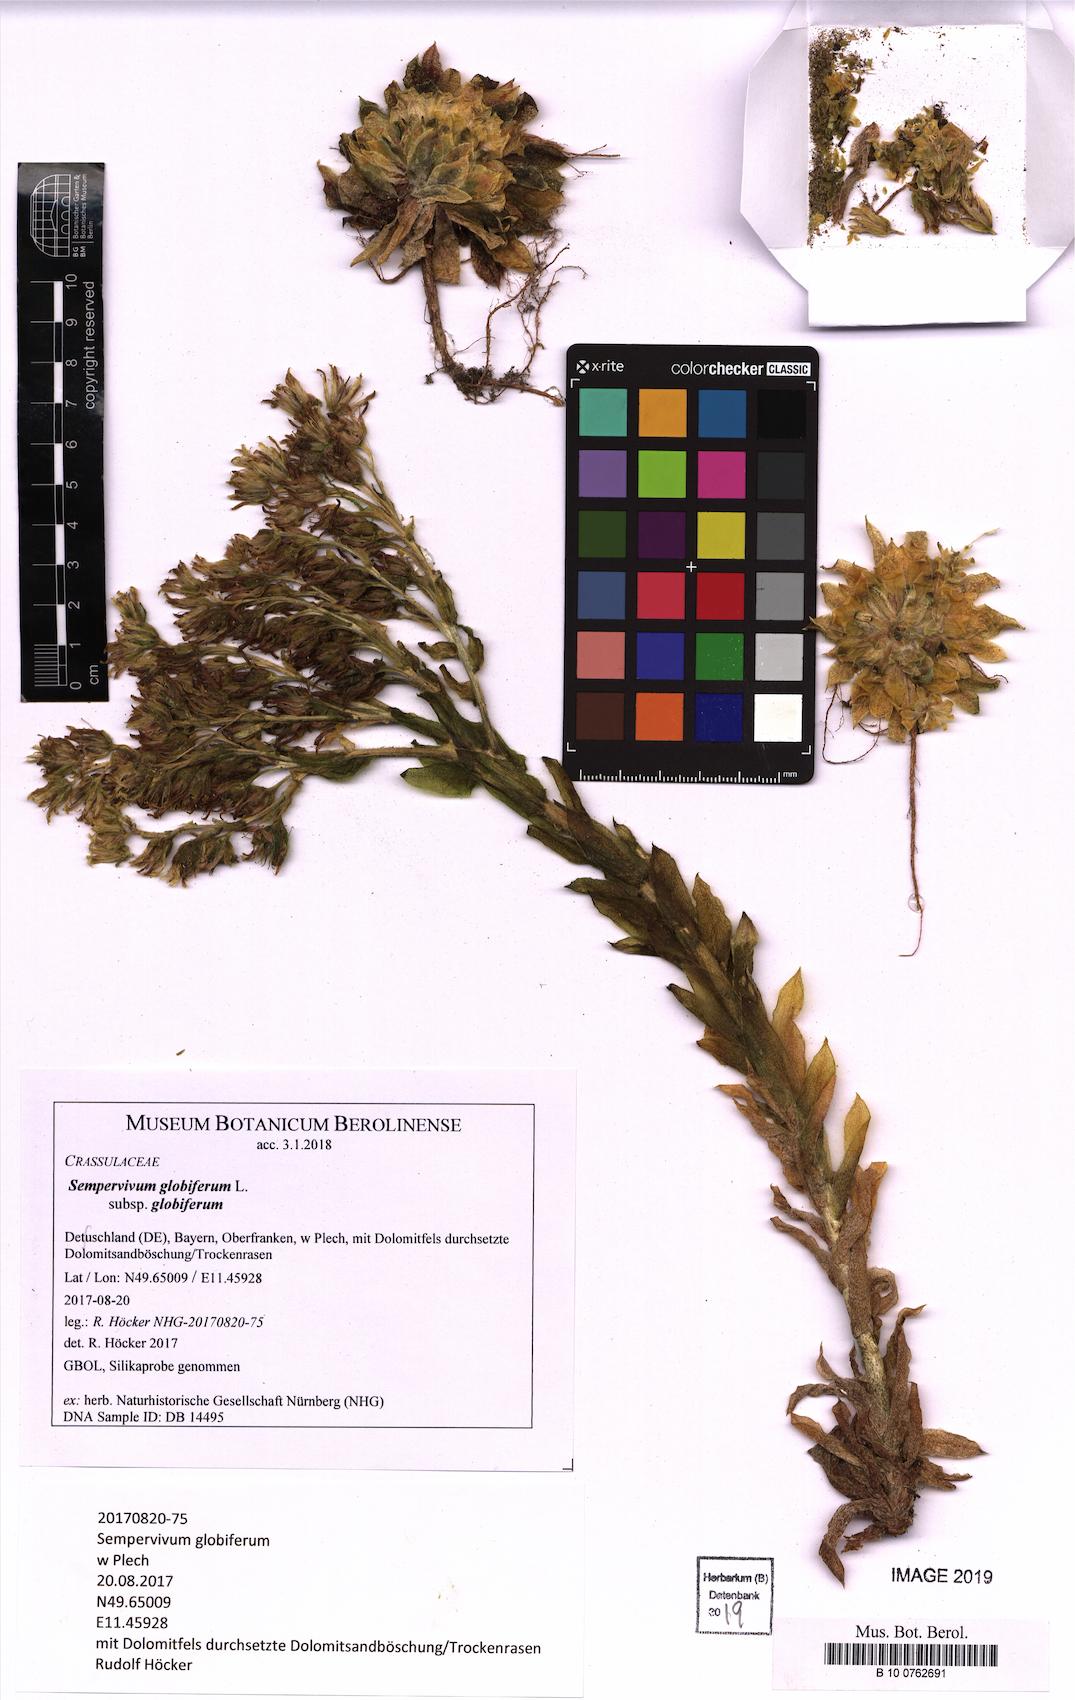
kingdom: Plantae
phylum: Tracheophyta
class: Magnoliopsida
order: Saxifragales
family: Crassulaceae
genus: Sempervivum
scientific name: Sempervivum globiferum
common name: Rolling hen-and-chicks
